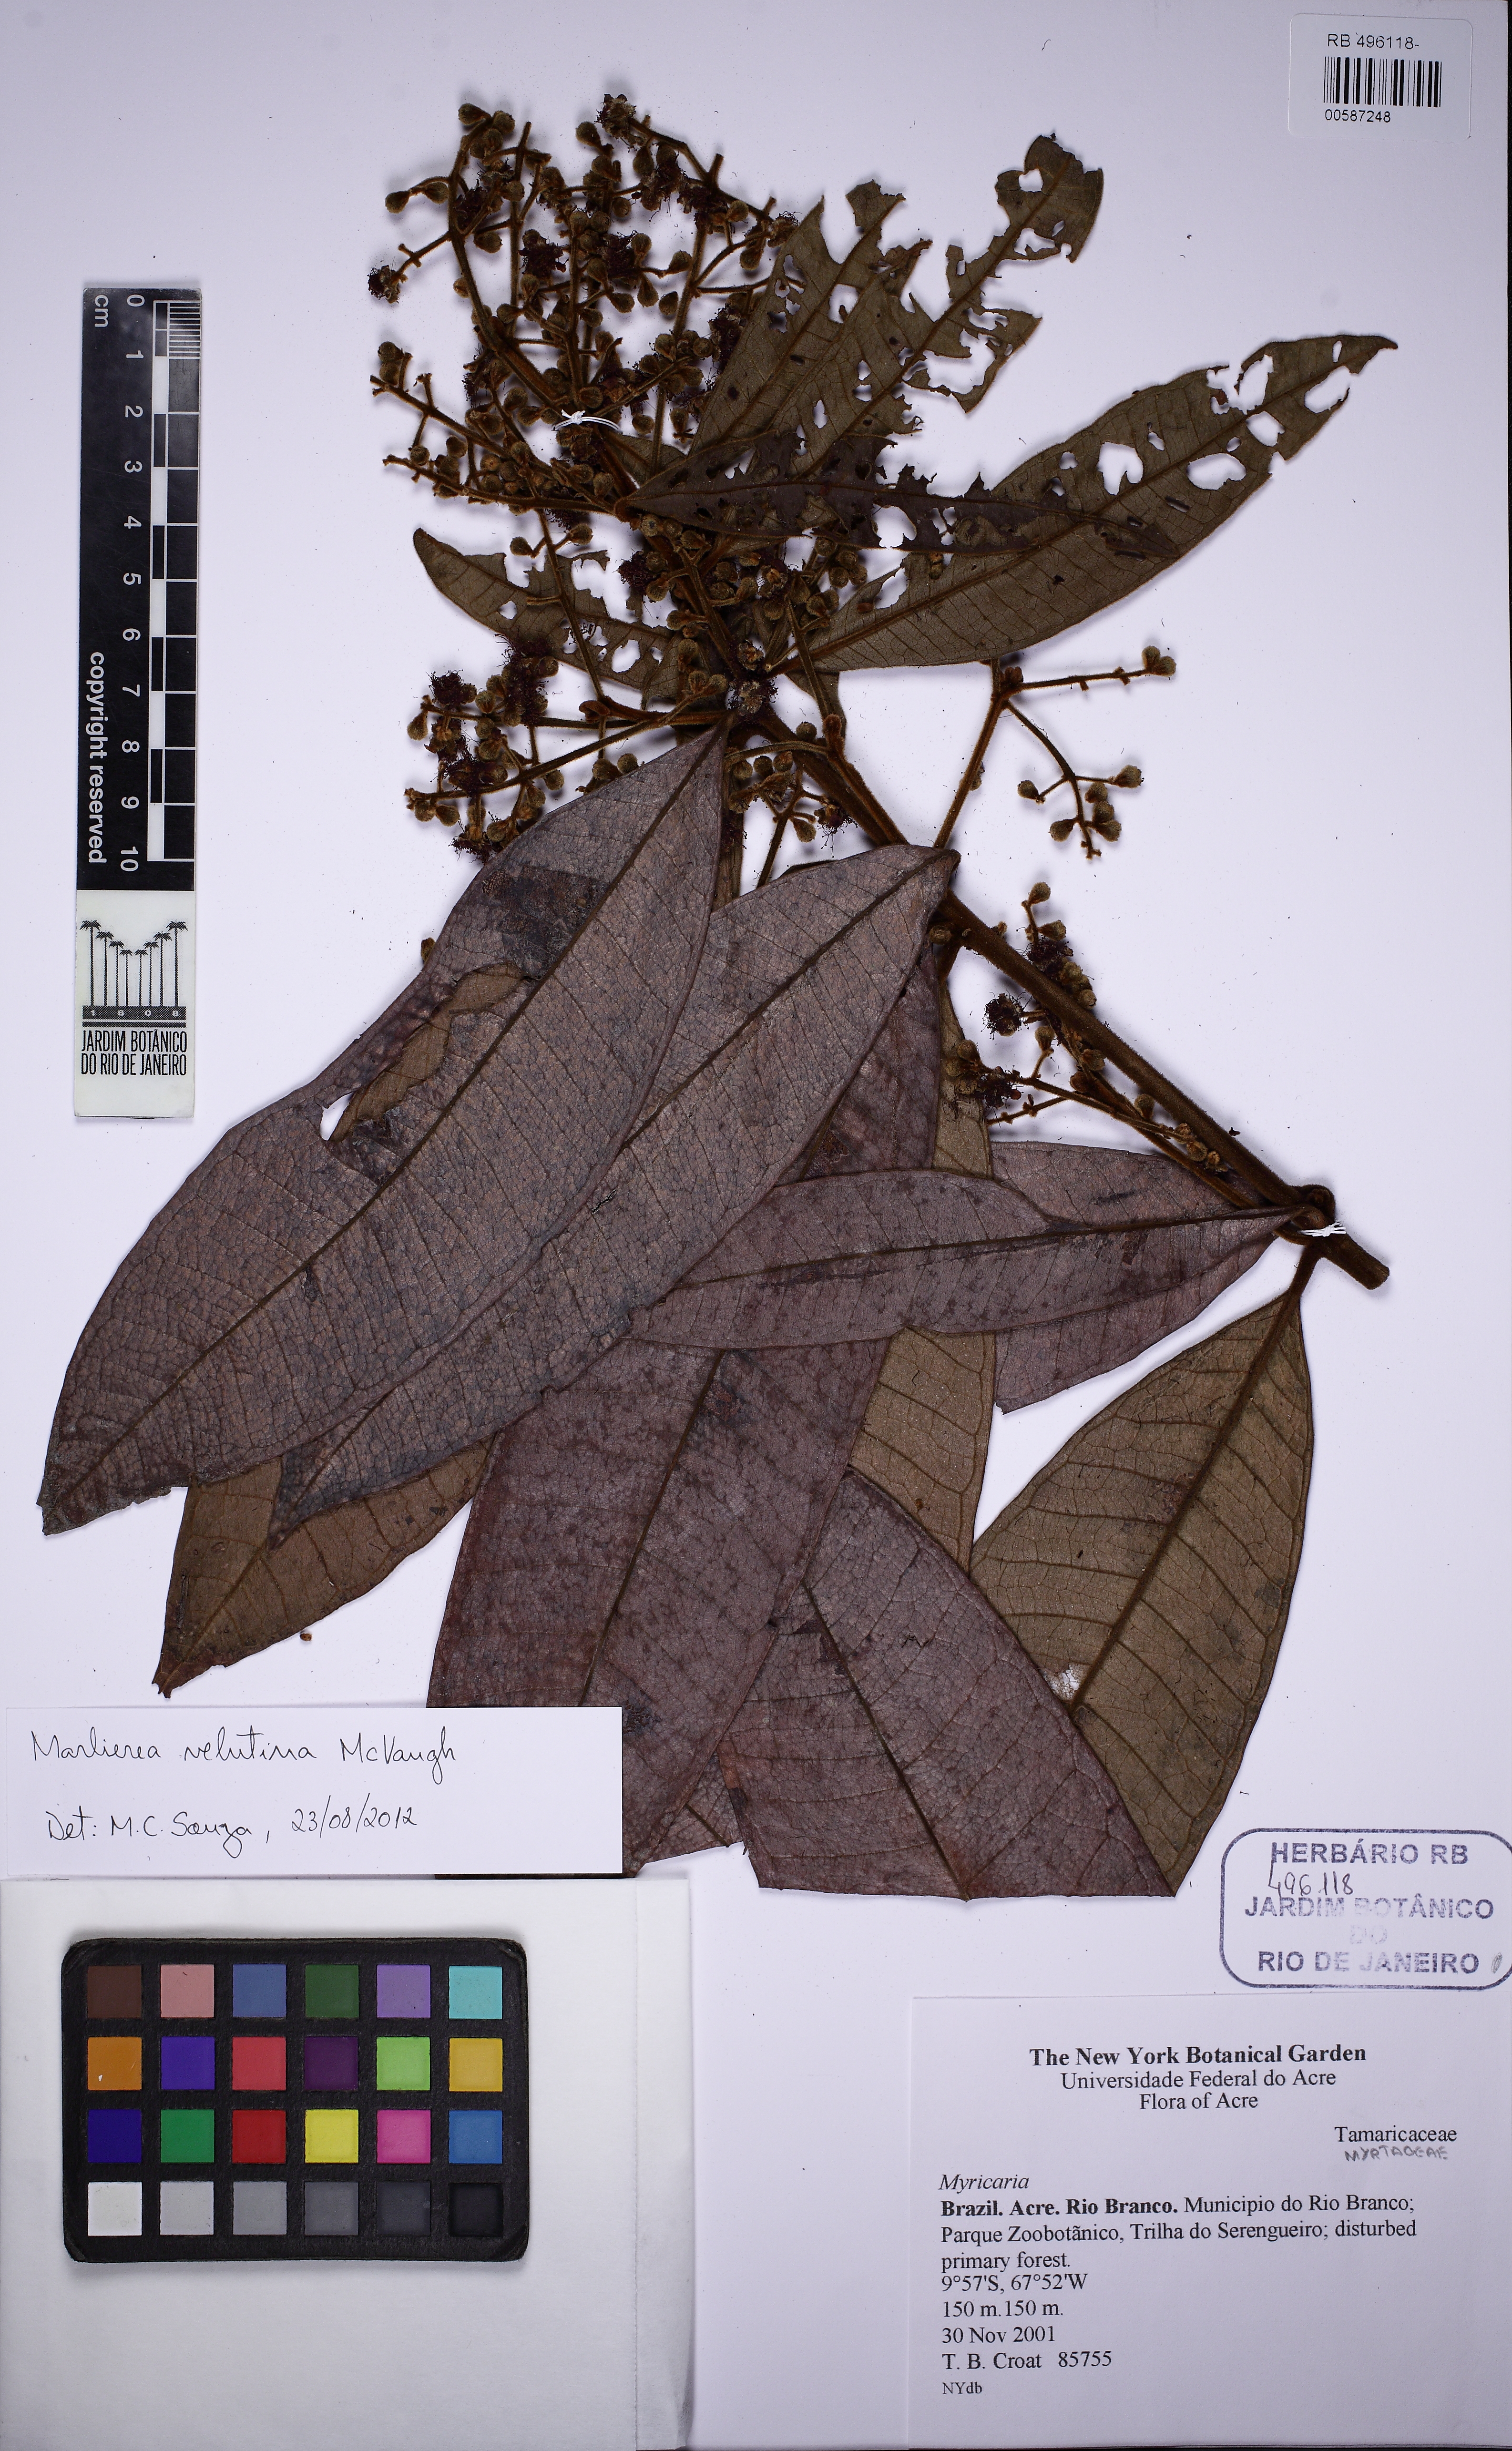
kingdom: Plantae
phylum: Tracheophyta
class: Magnoliopsida
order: Myrtales
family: Myrtaceae
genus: Myrcia
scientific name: Myrcia neovelutina
